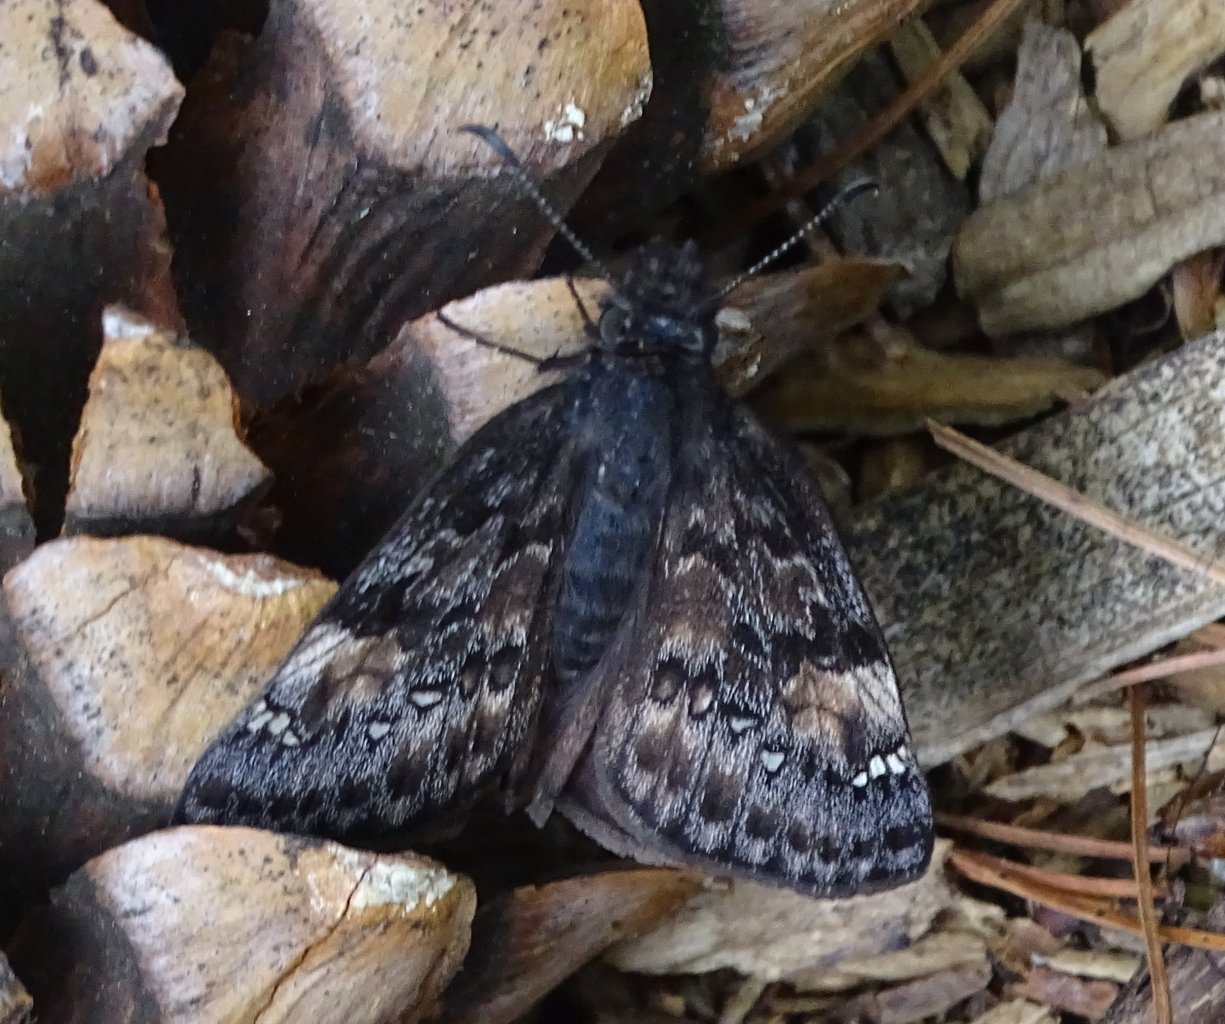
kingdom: Animalia
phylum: Arthropoda
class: Insecta
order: Lepidoptera
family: Hesperiidae
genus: Gesta
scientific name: Gesta
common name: Juvenal's Duskywing
